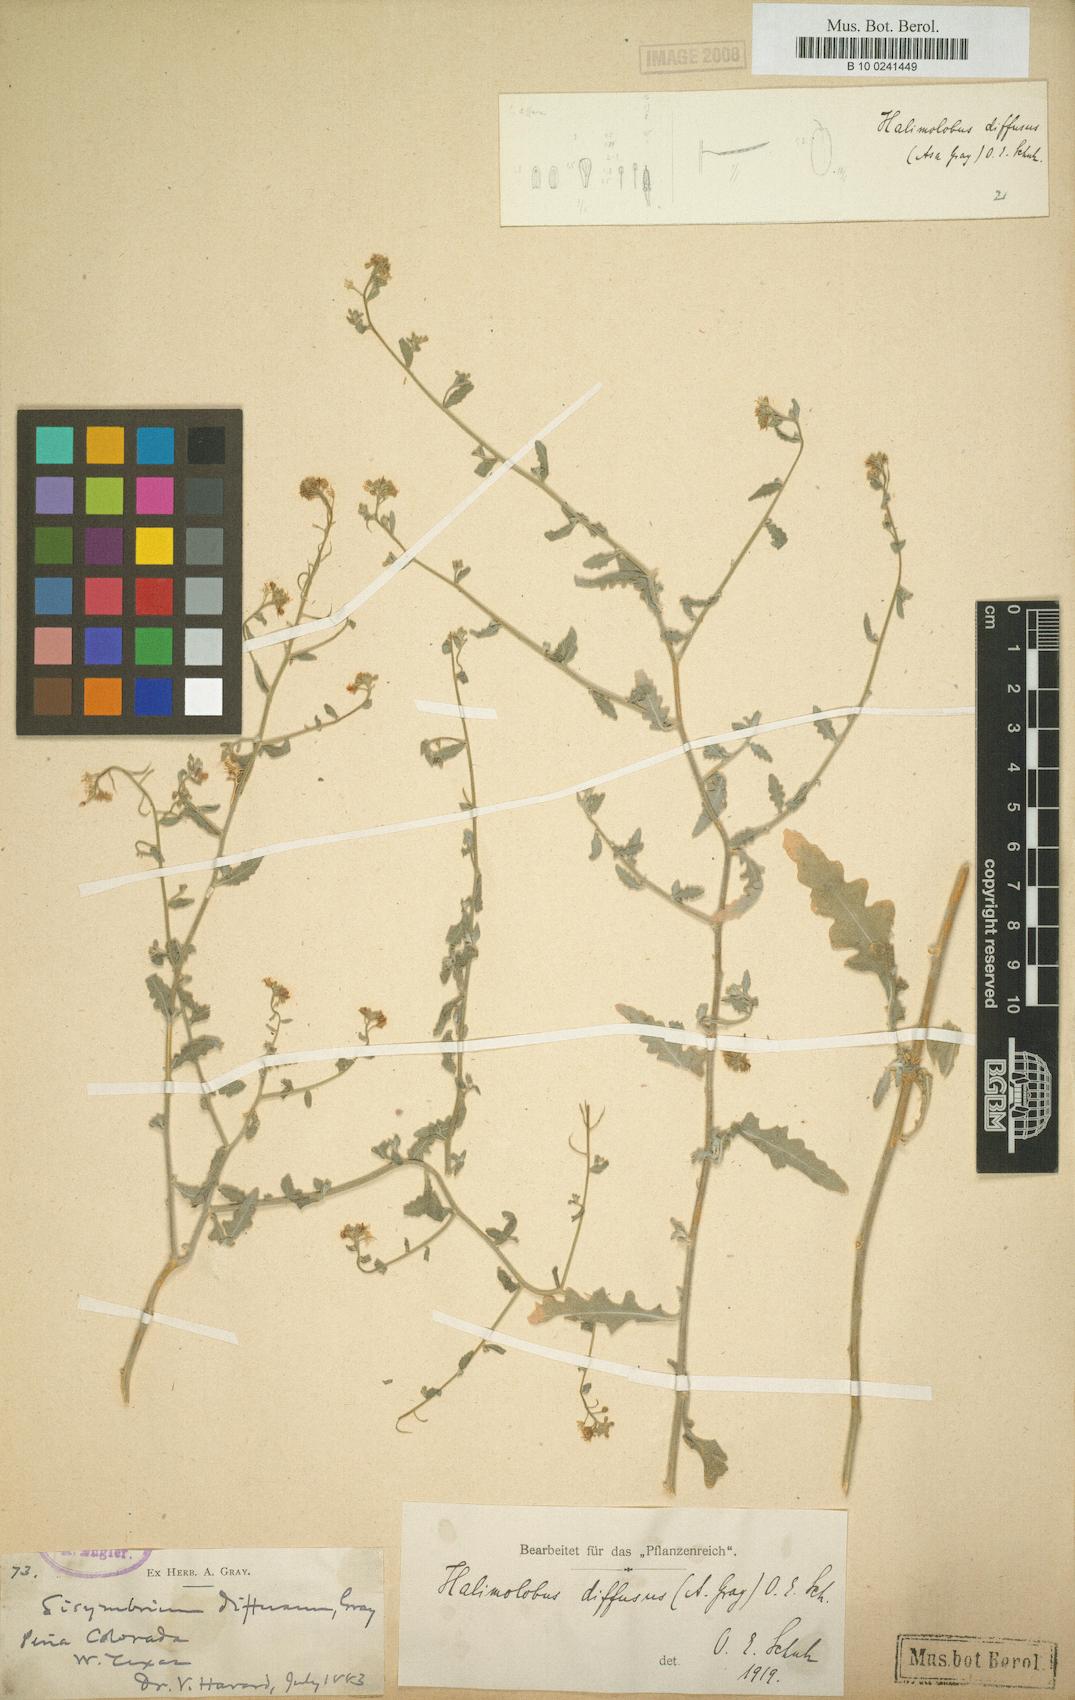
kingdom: Plantae
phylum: Tracheophyta
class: Magnoliopsida
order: Brassicales
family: Brassicaceae
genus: Halimolobus
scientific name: Halimolobus
